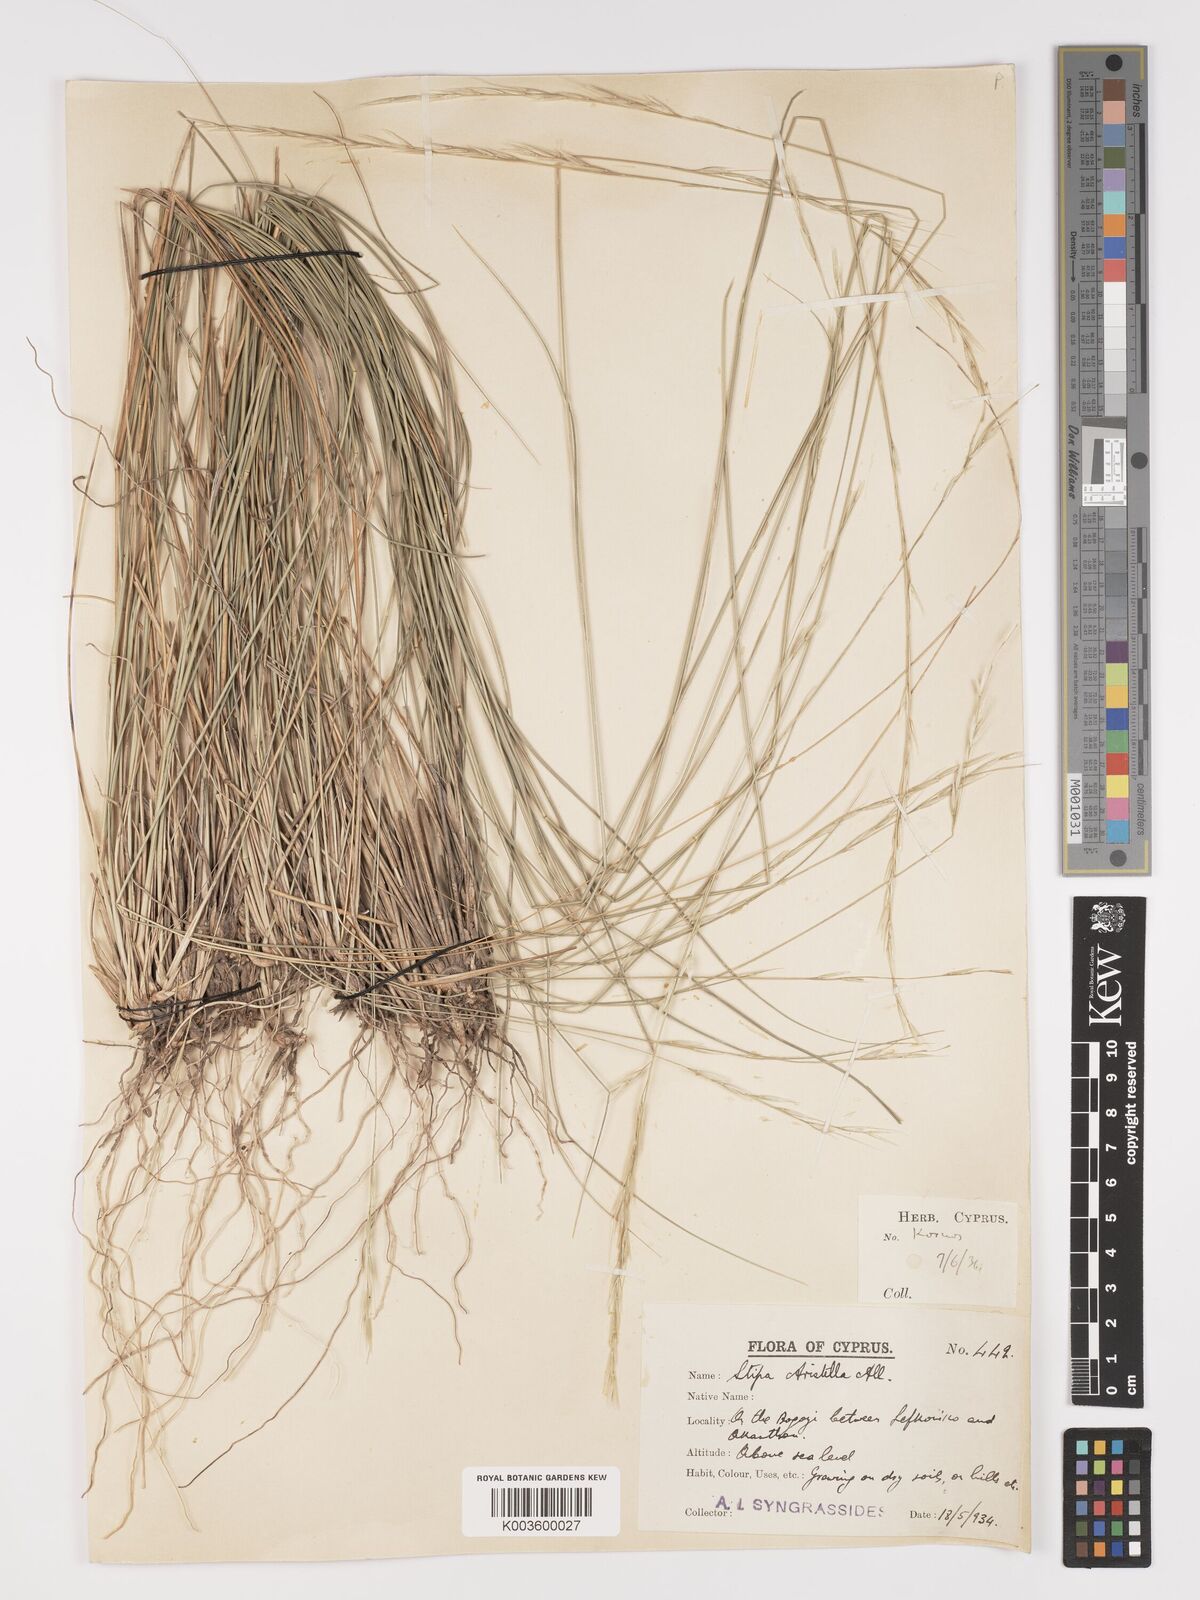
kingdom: Plantae
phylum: Tracheophyta
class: Liliopsida
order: Poales
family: Poaceae
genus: Achnatherum
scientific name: Achnatherum bromoides
